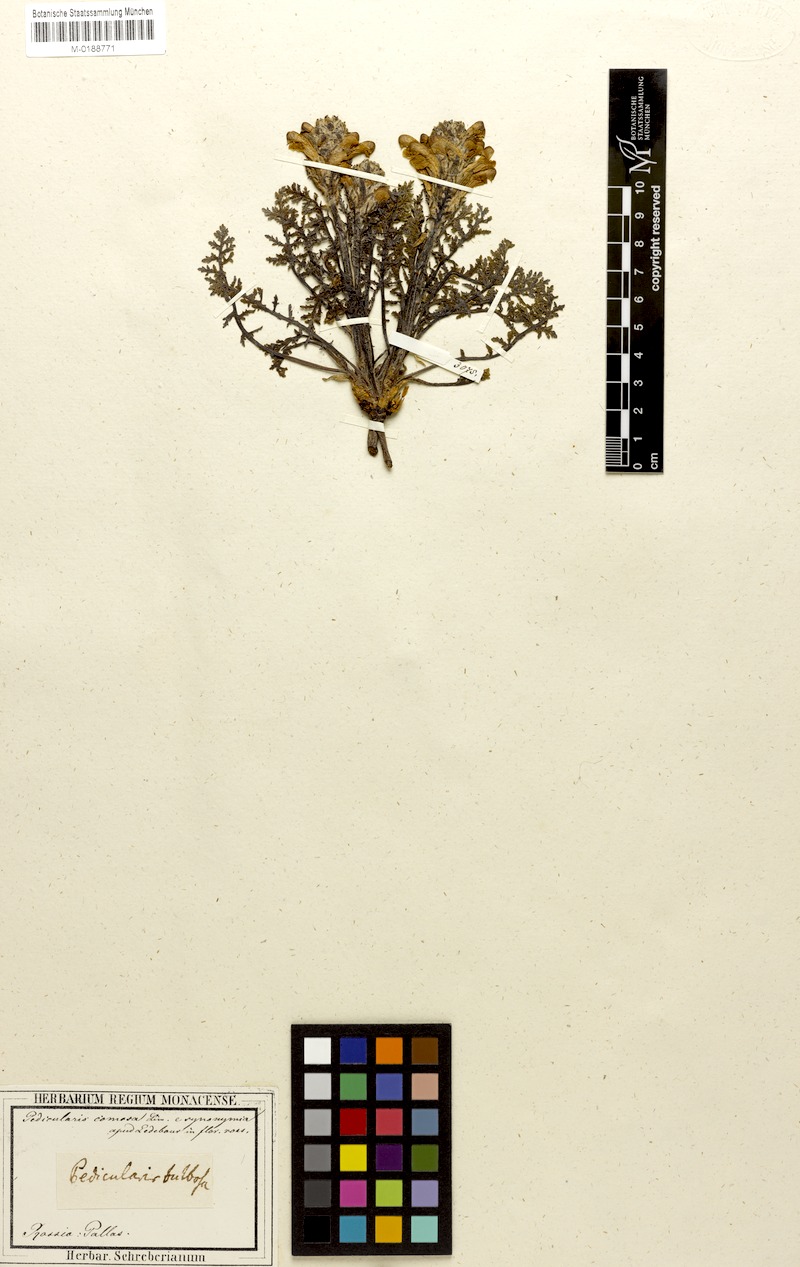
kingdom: Plantae
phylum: Tracheophyta
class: Magnoliopsida
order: Lamiales
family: Orobanchaceae
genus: Pedicularis
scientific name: Pedicularis kaufmannii
